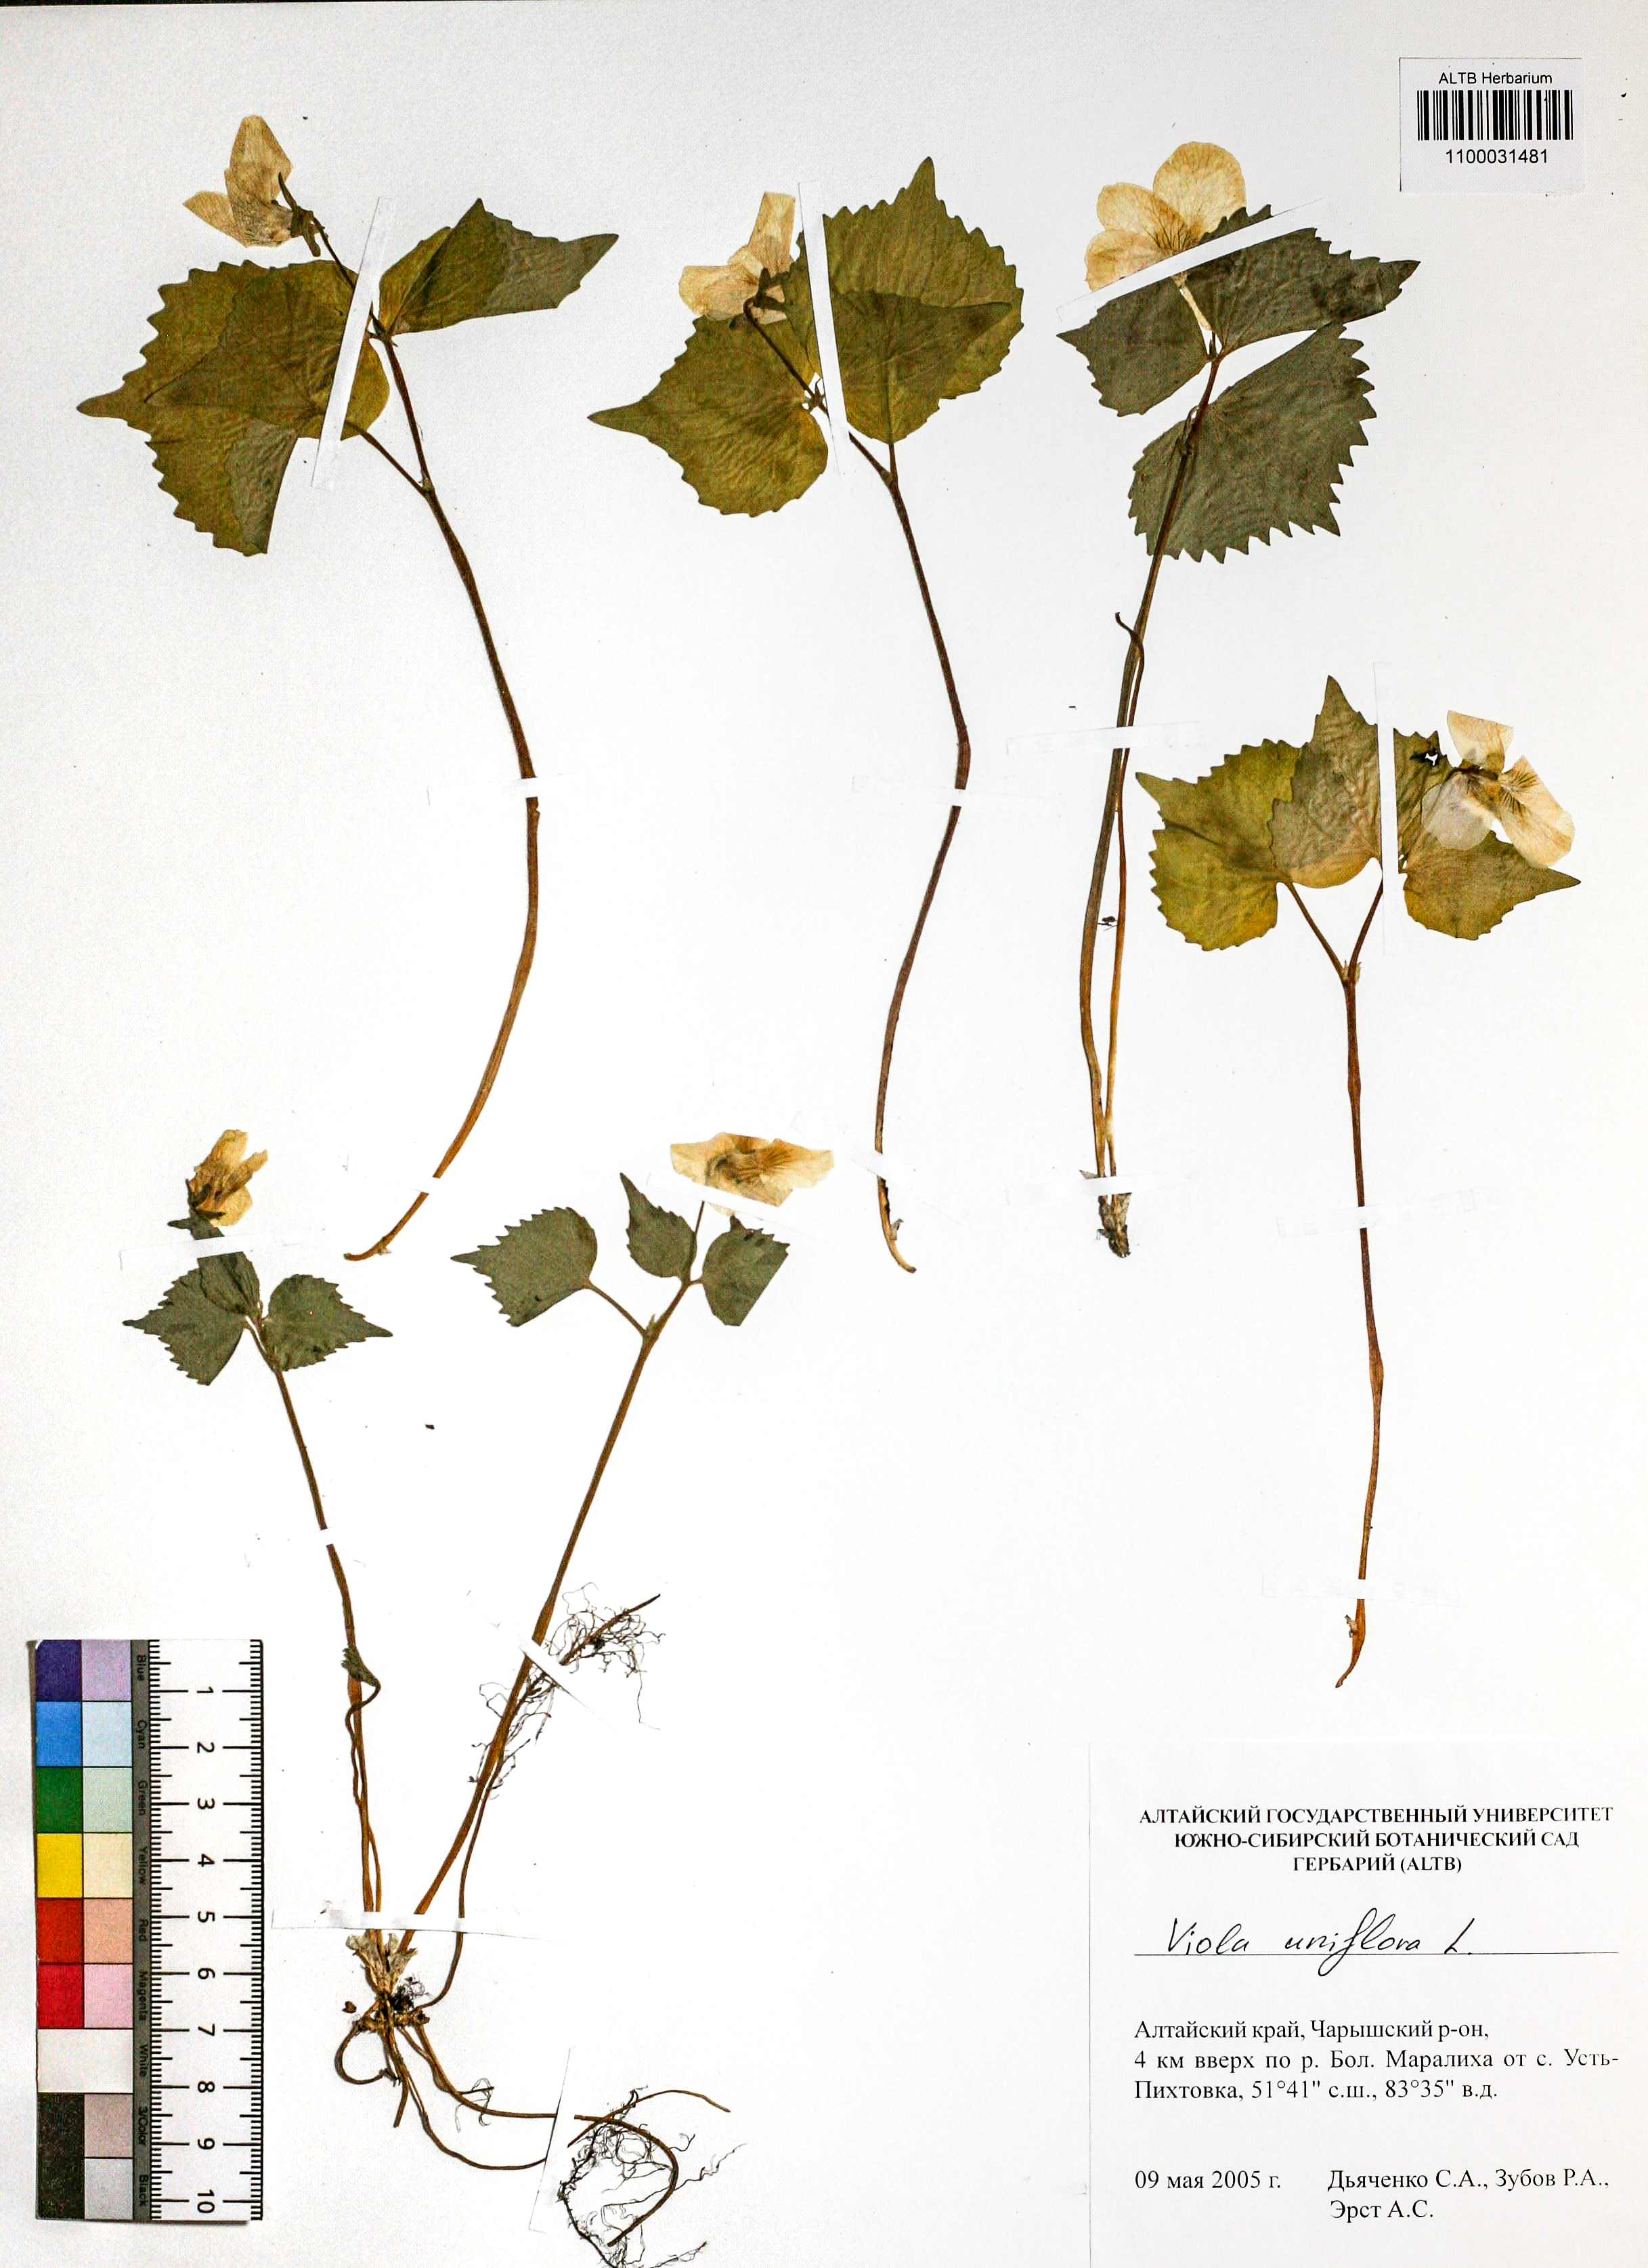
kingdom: Plantae
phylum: Tracheophyta
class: Magnoliopsida
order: Malpighiales
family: Violaceae
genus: Viola
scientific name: Viola uniflora
